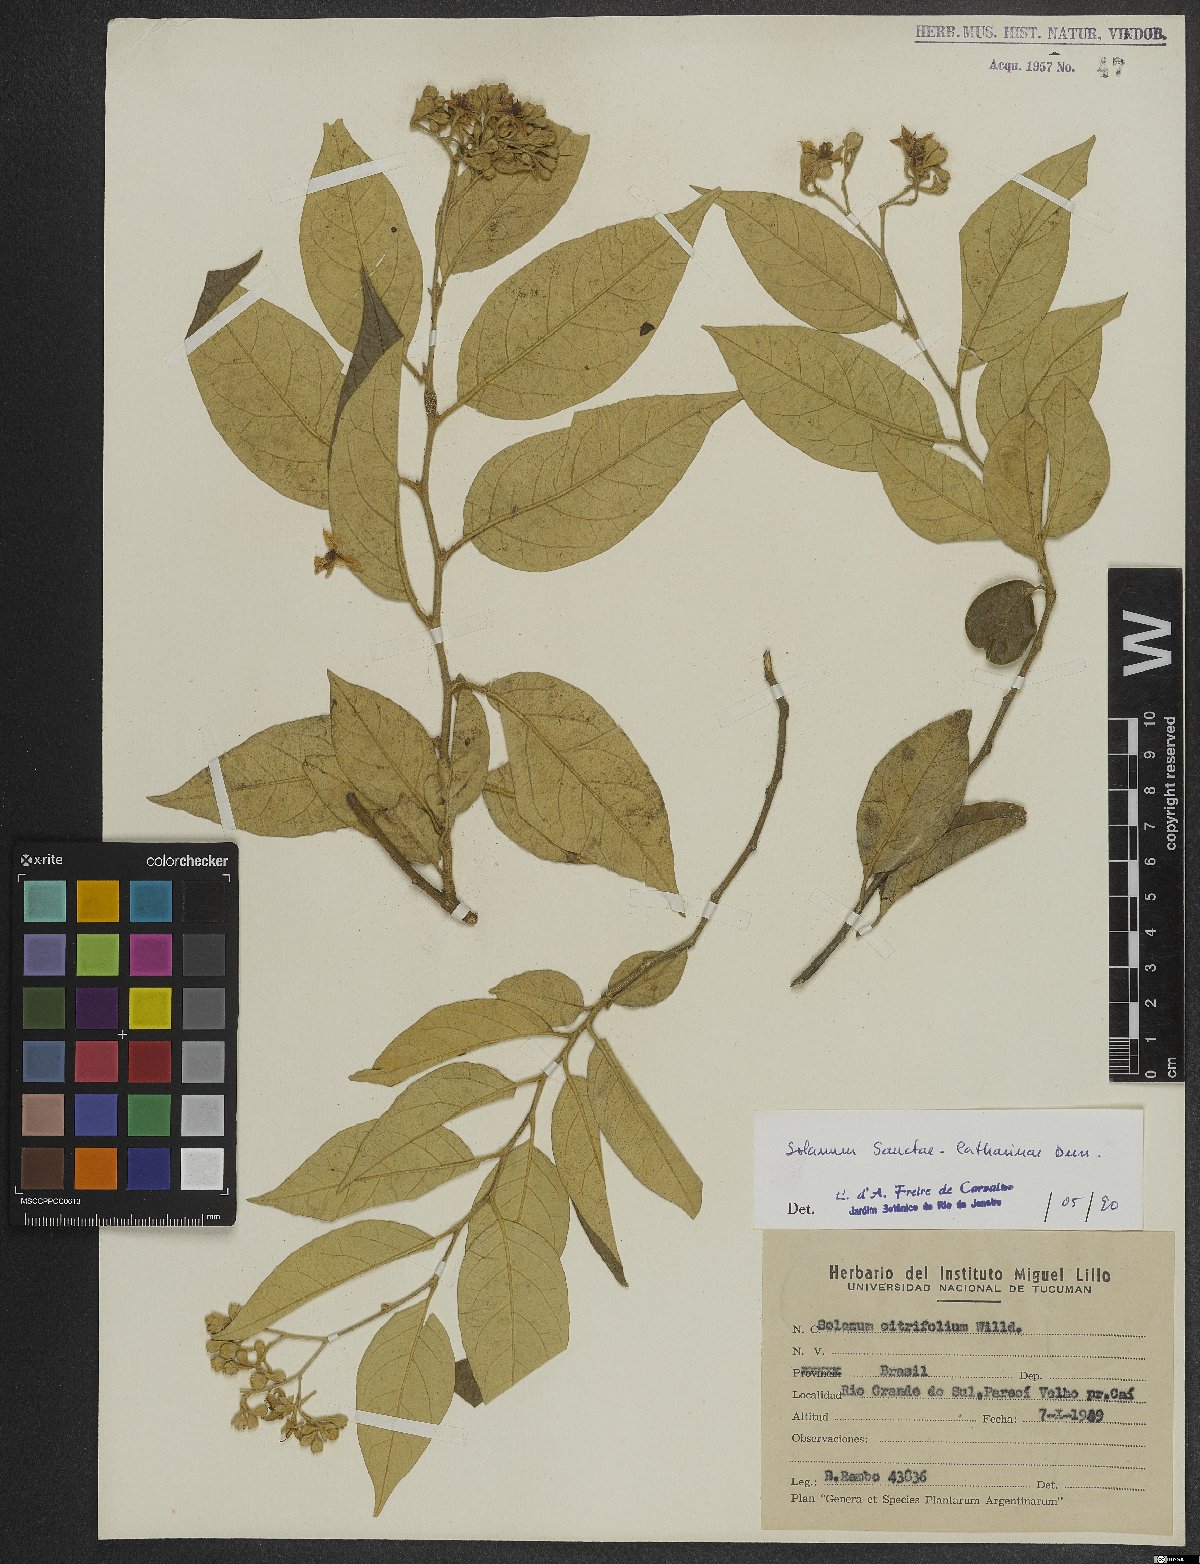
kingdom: Plantae
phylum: Tracheophyta
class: Magnoliopsida
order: Solanales
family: Solanaceae
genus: Solanum
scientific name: Solanum sanctae-catharinae
